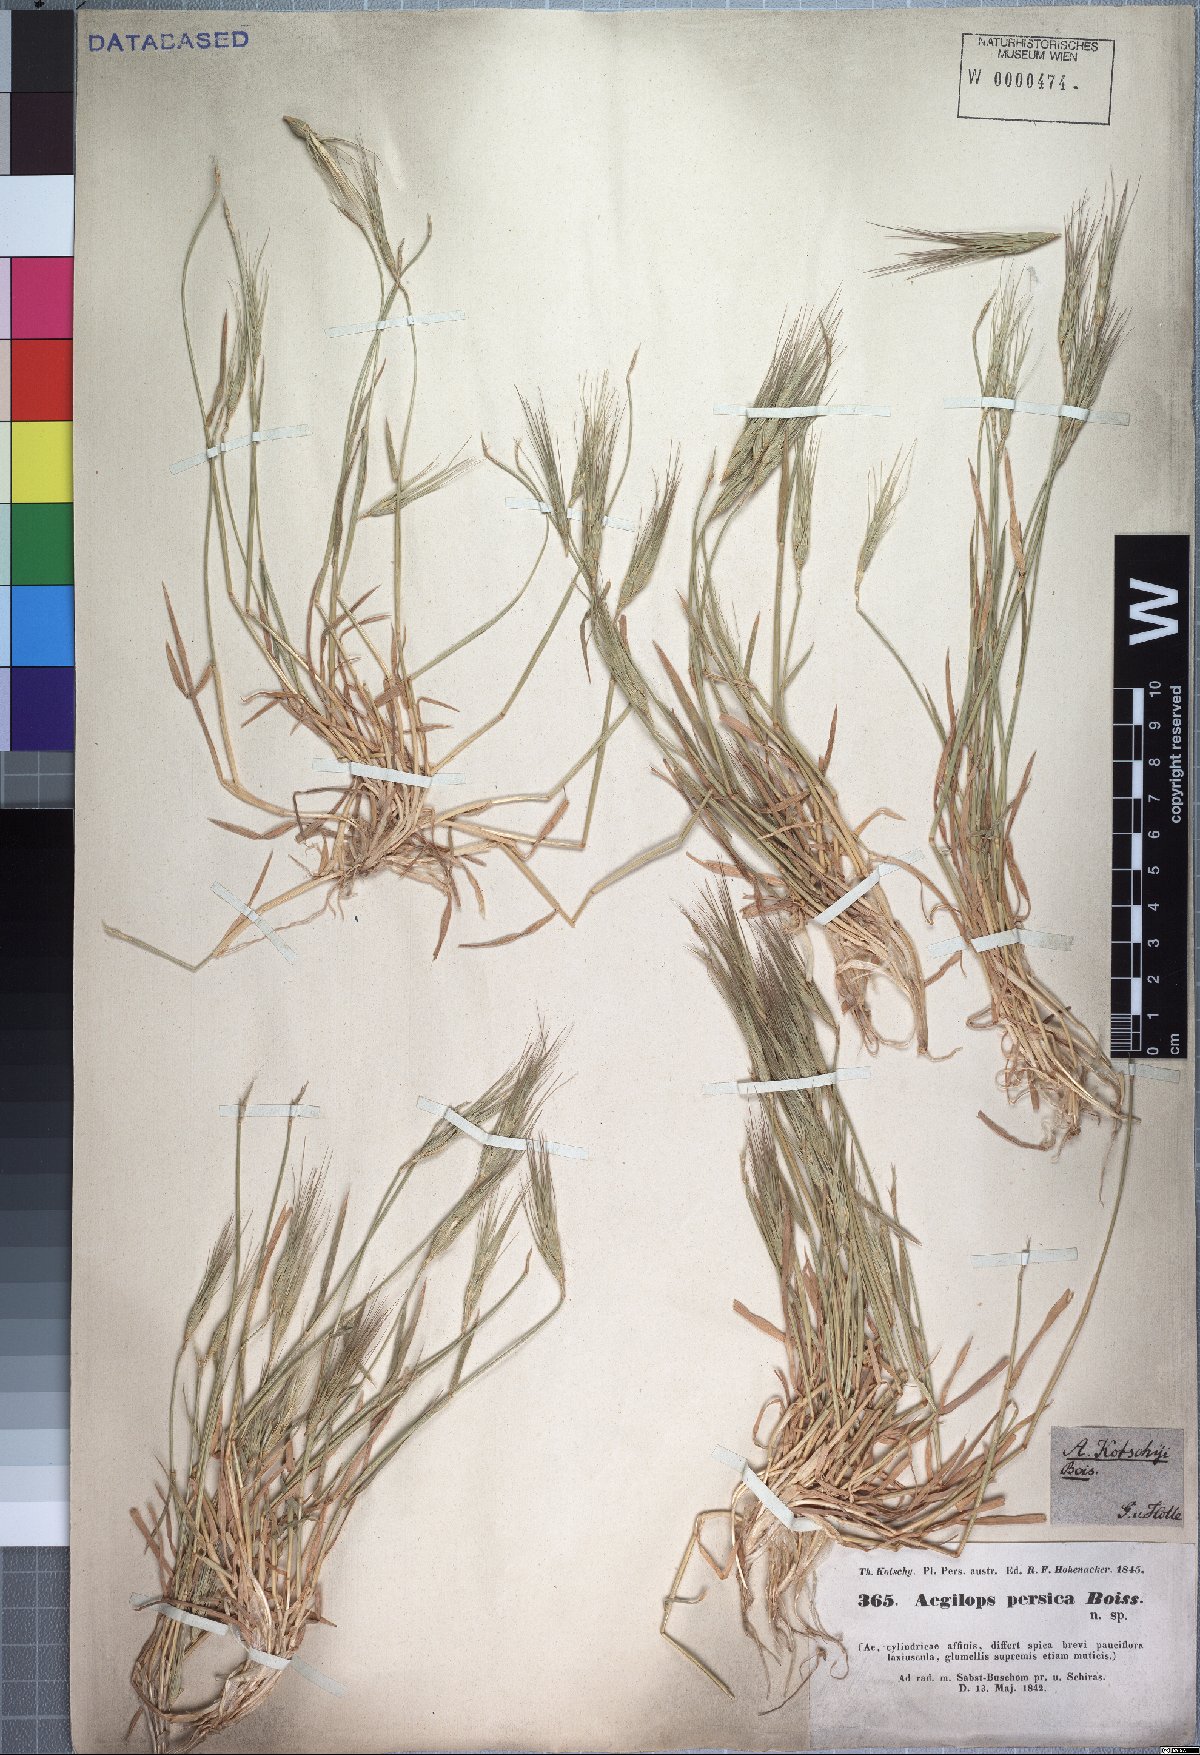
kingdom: Plantae
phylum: Tracheophyta
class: Liliopsida
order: Poales
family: Poaceae
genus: Aegilops
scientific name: Aegilops kotschyi
